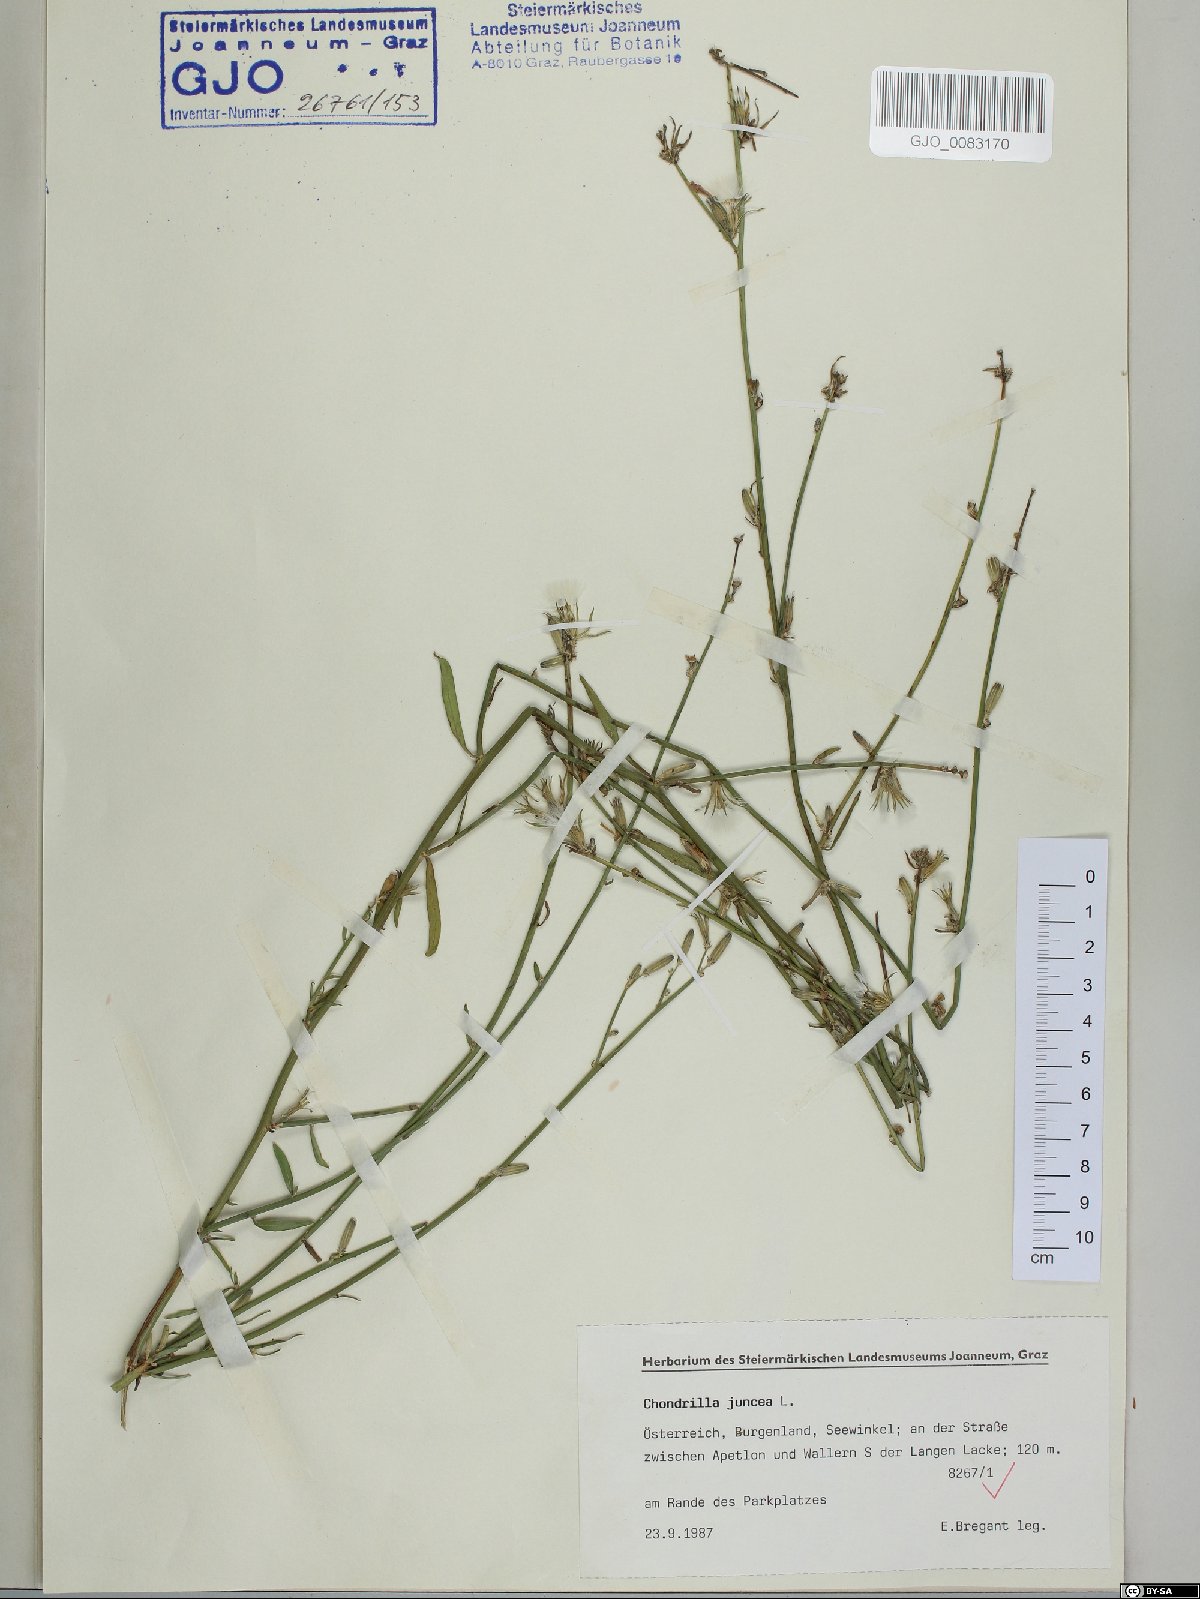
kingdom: Plantae
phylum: Tracheophyta
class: Magnoliopsida
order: Asterales
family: Asteraceae
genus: Chondrilla
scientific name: Chondrilla juncea
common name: Skeleton weed
